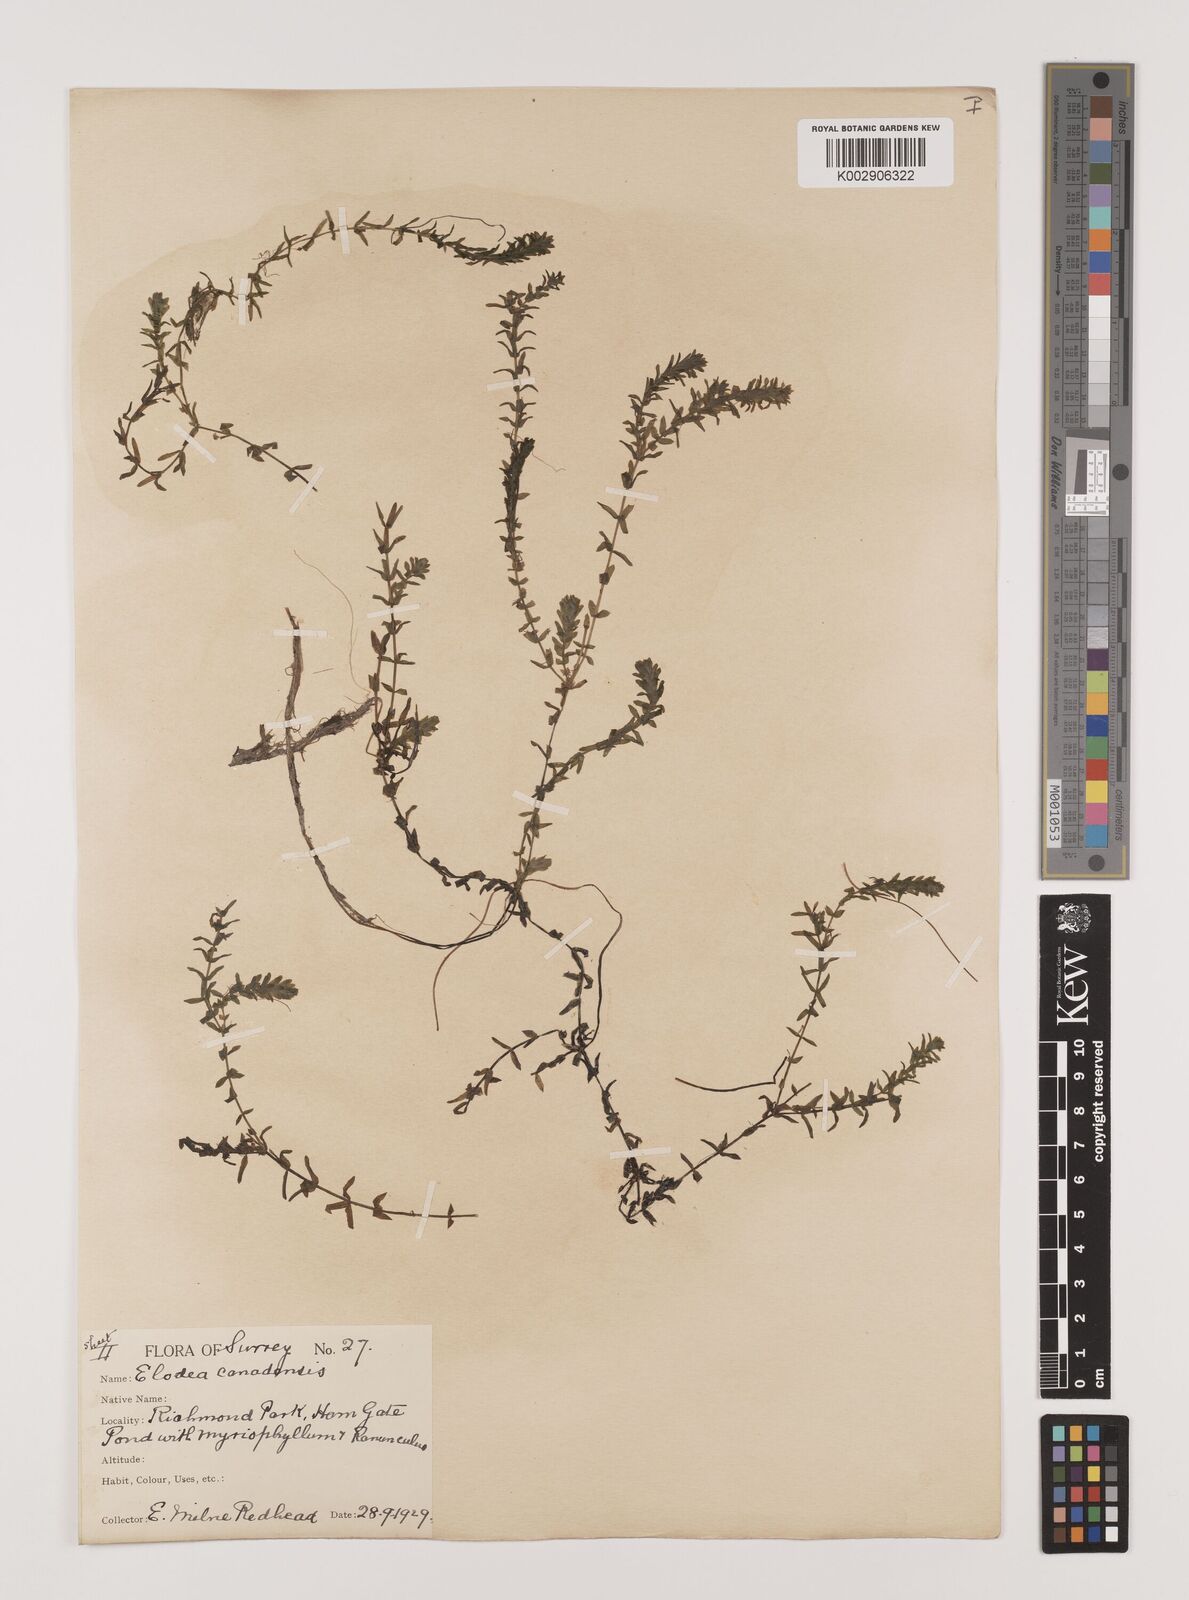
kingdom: Plantae
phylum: Tracheophyta
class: Liliopsida
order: Alismatales
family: Hydrocharitaceae
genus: Elodea
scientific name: Elodea canadensis
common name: Canadian waterweed
